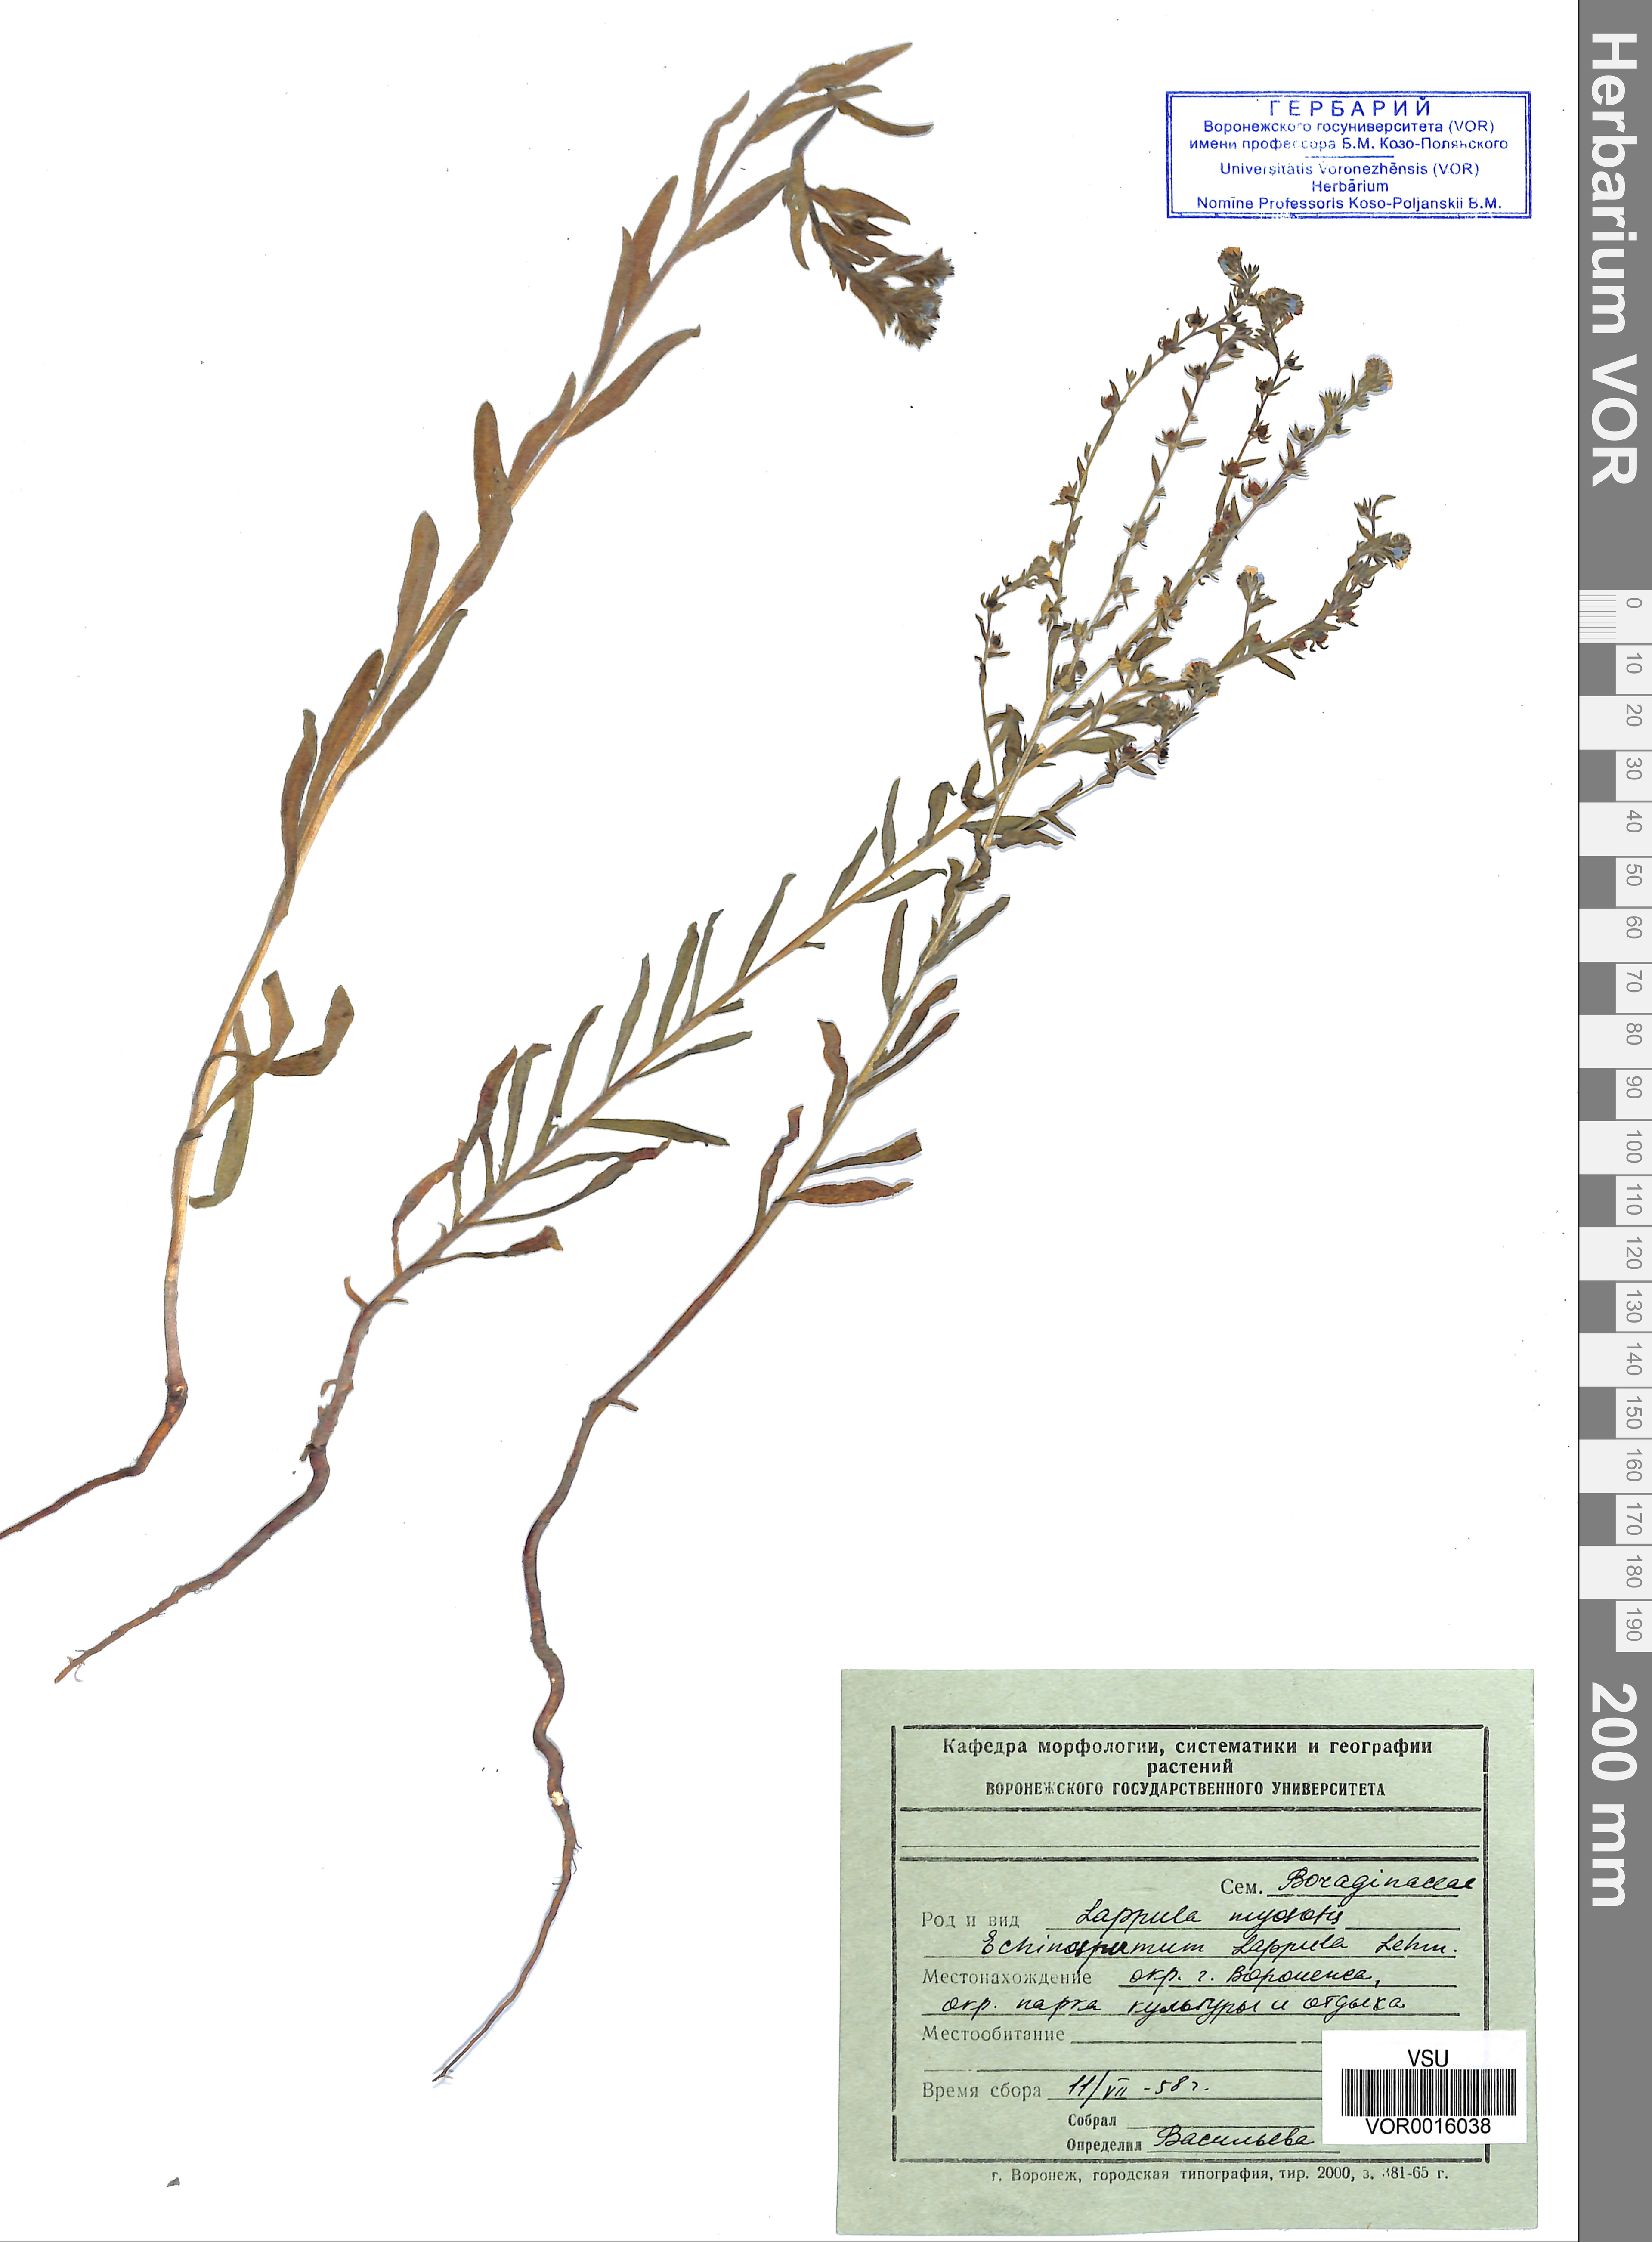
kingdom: Plantae
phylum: Tracheophyta
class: Magnoliopsida
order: Boraginales
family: Boraginaceae
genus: Lappula
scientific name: Lappula squarrosa
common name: European stickseed
